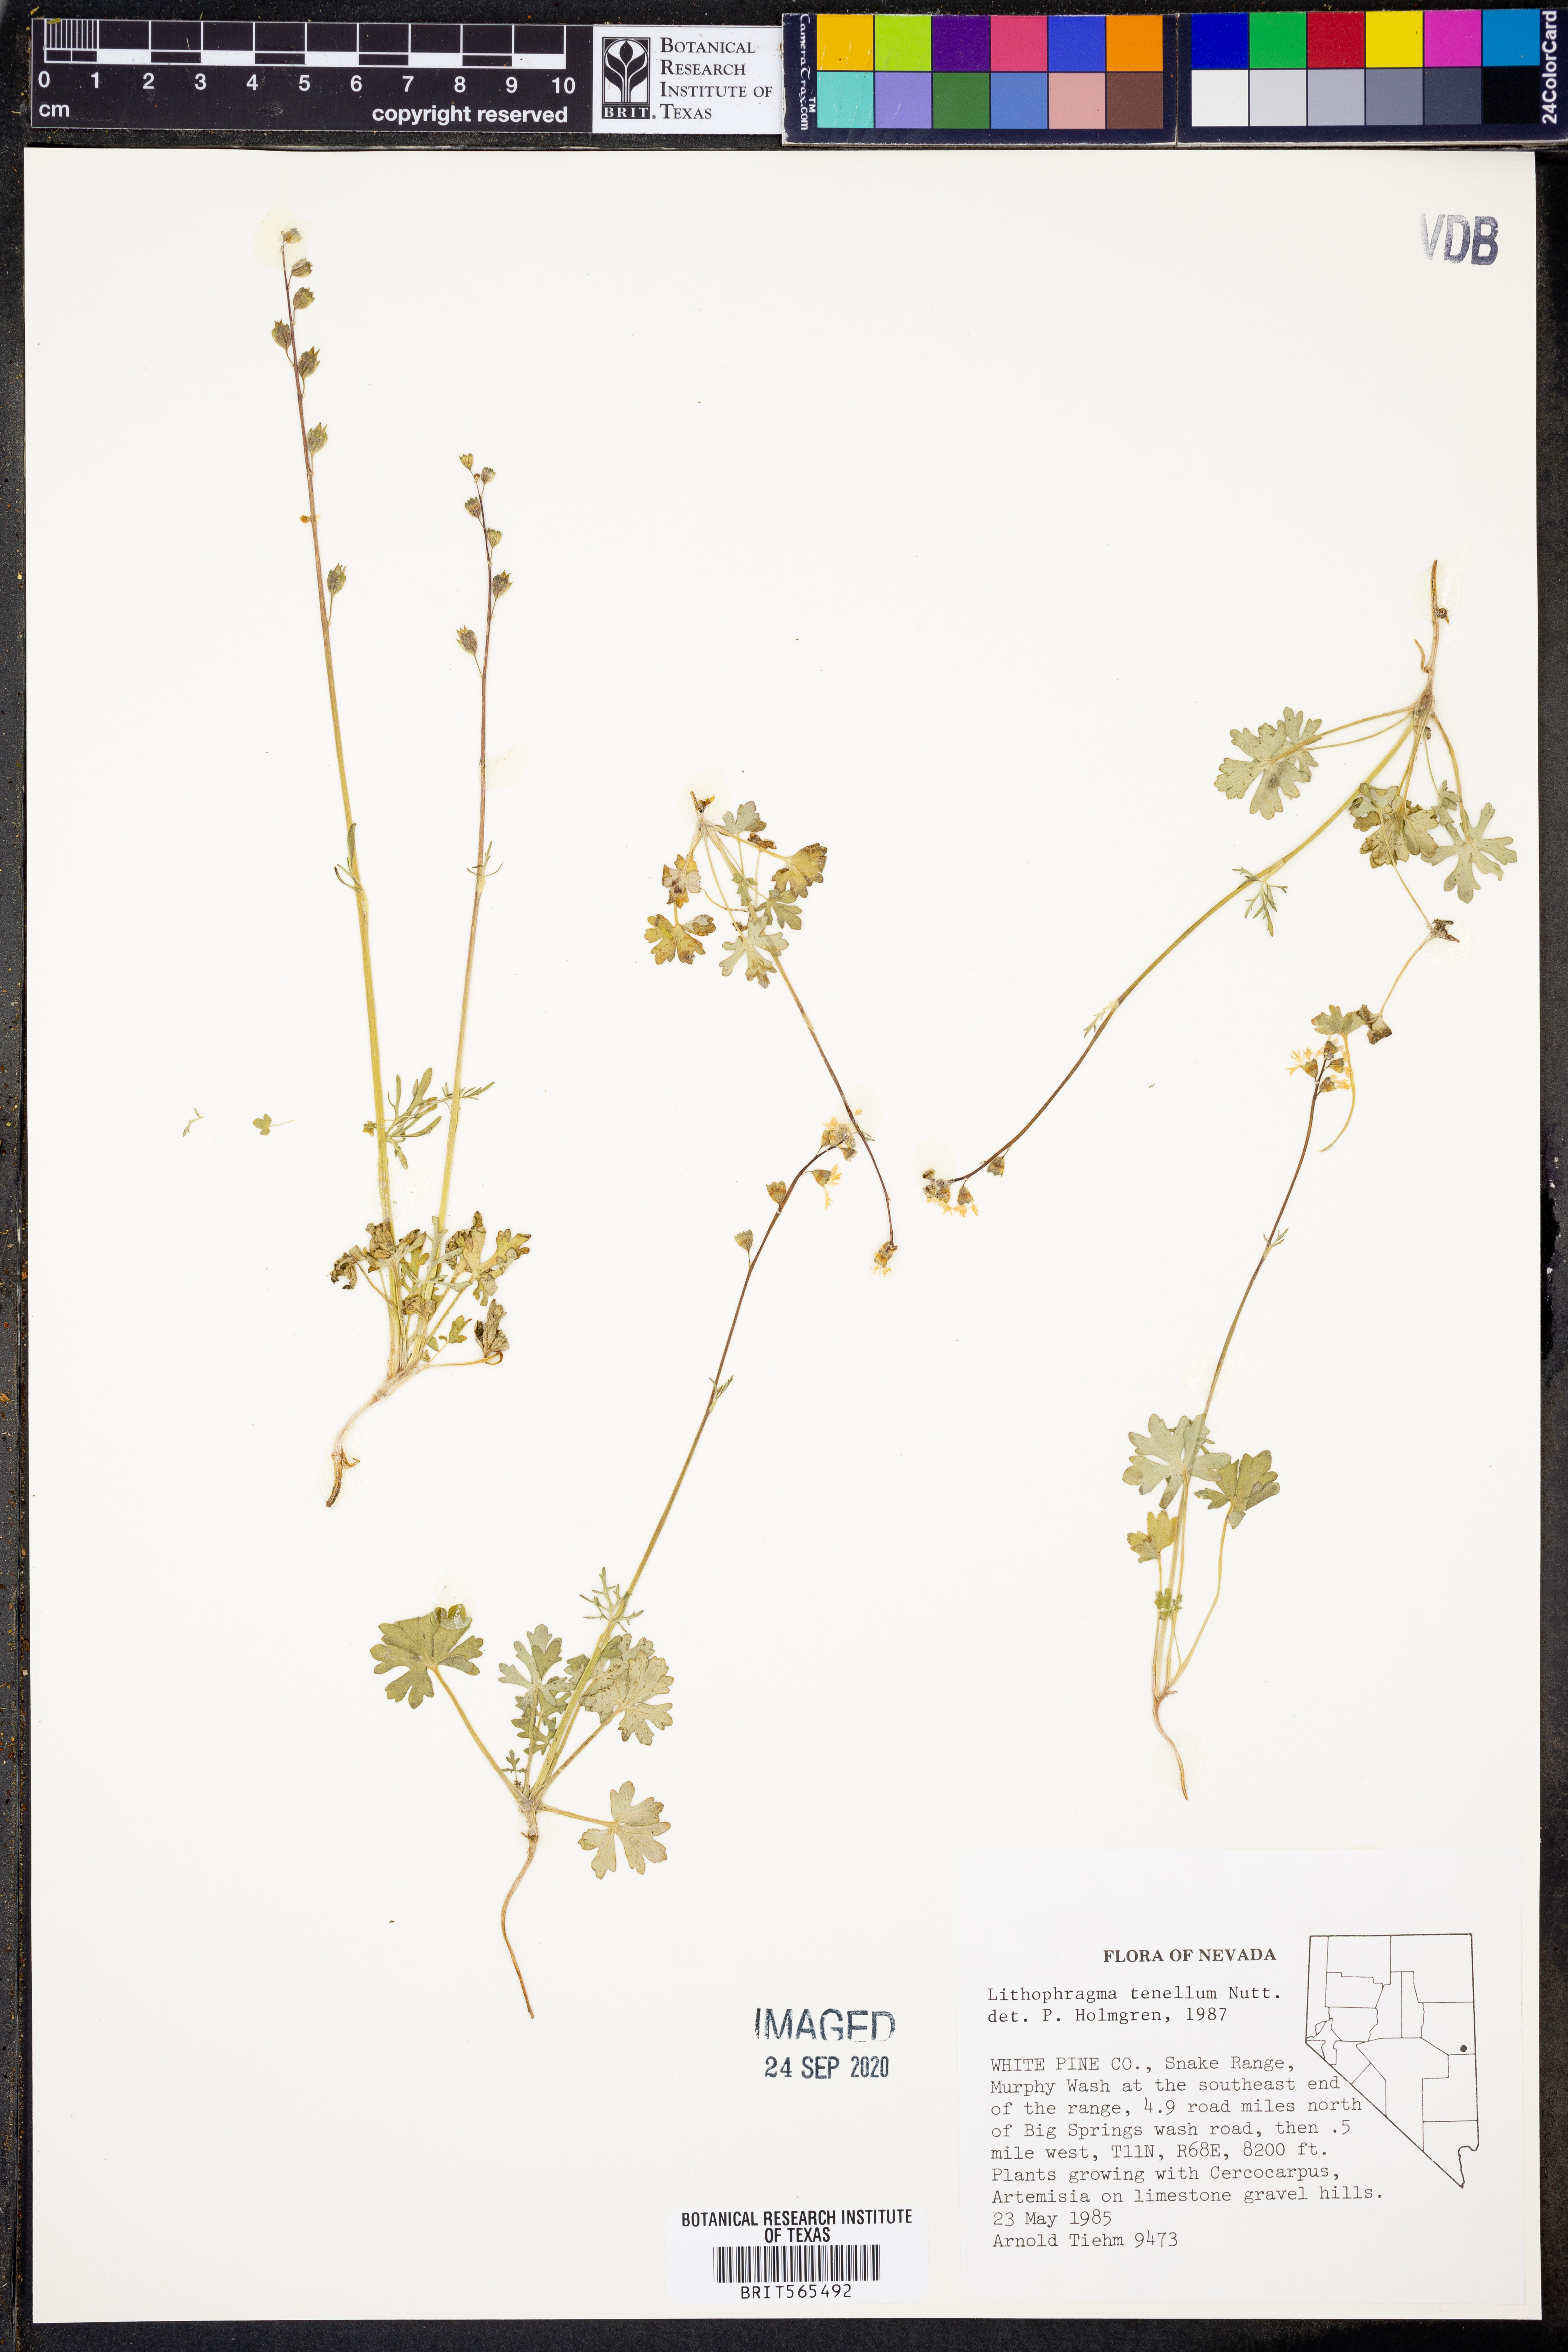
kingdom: Plantae
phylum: Tracheophyta
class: Magnoliopsida
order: Saxifragales
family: Saxifragaceae
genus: Lithophragma
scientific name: Lithophragma tenella
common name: Slender fringe-cup
